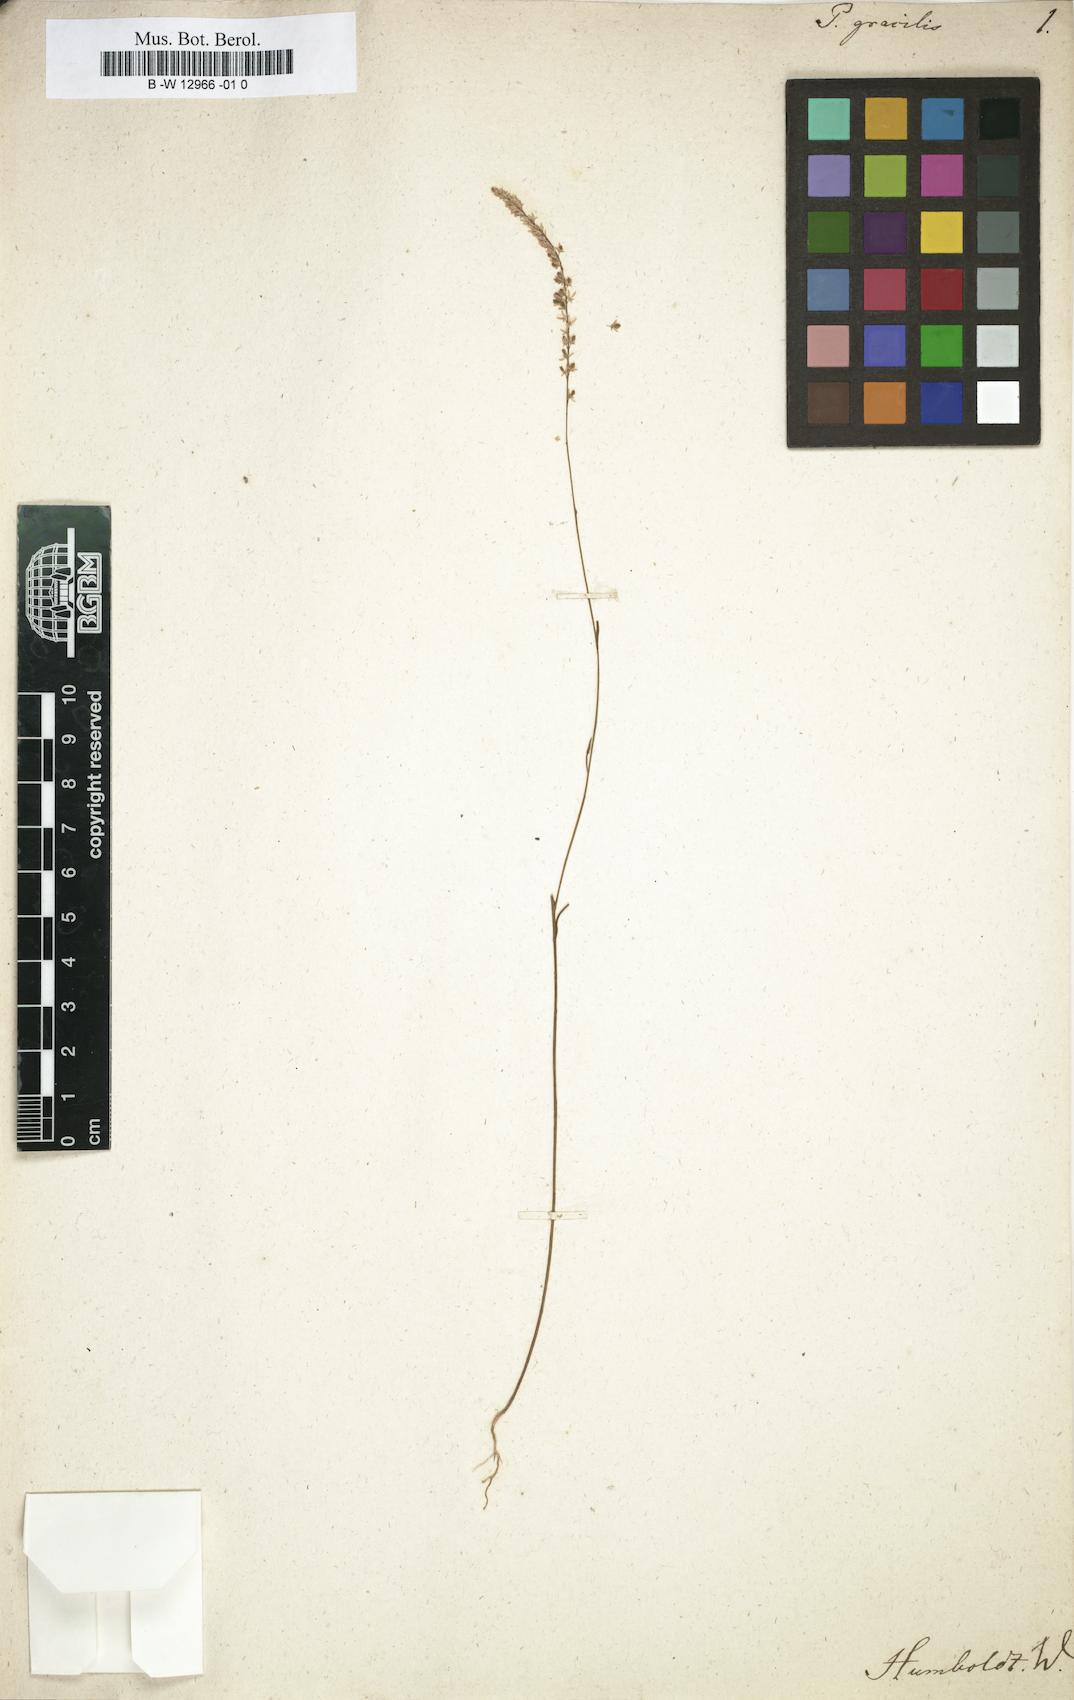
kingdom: Plantae
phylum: Tracheophyta
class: Magnoliopsida
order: Fabales
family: Polygalaceae
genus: Polygala
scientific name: Polygala gracilis
